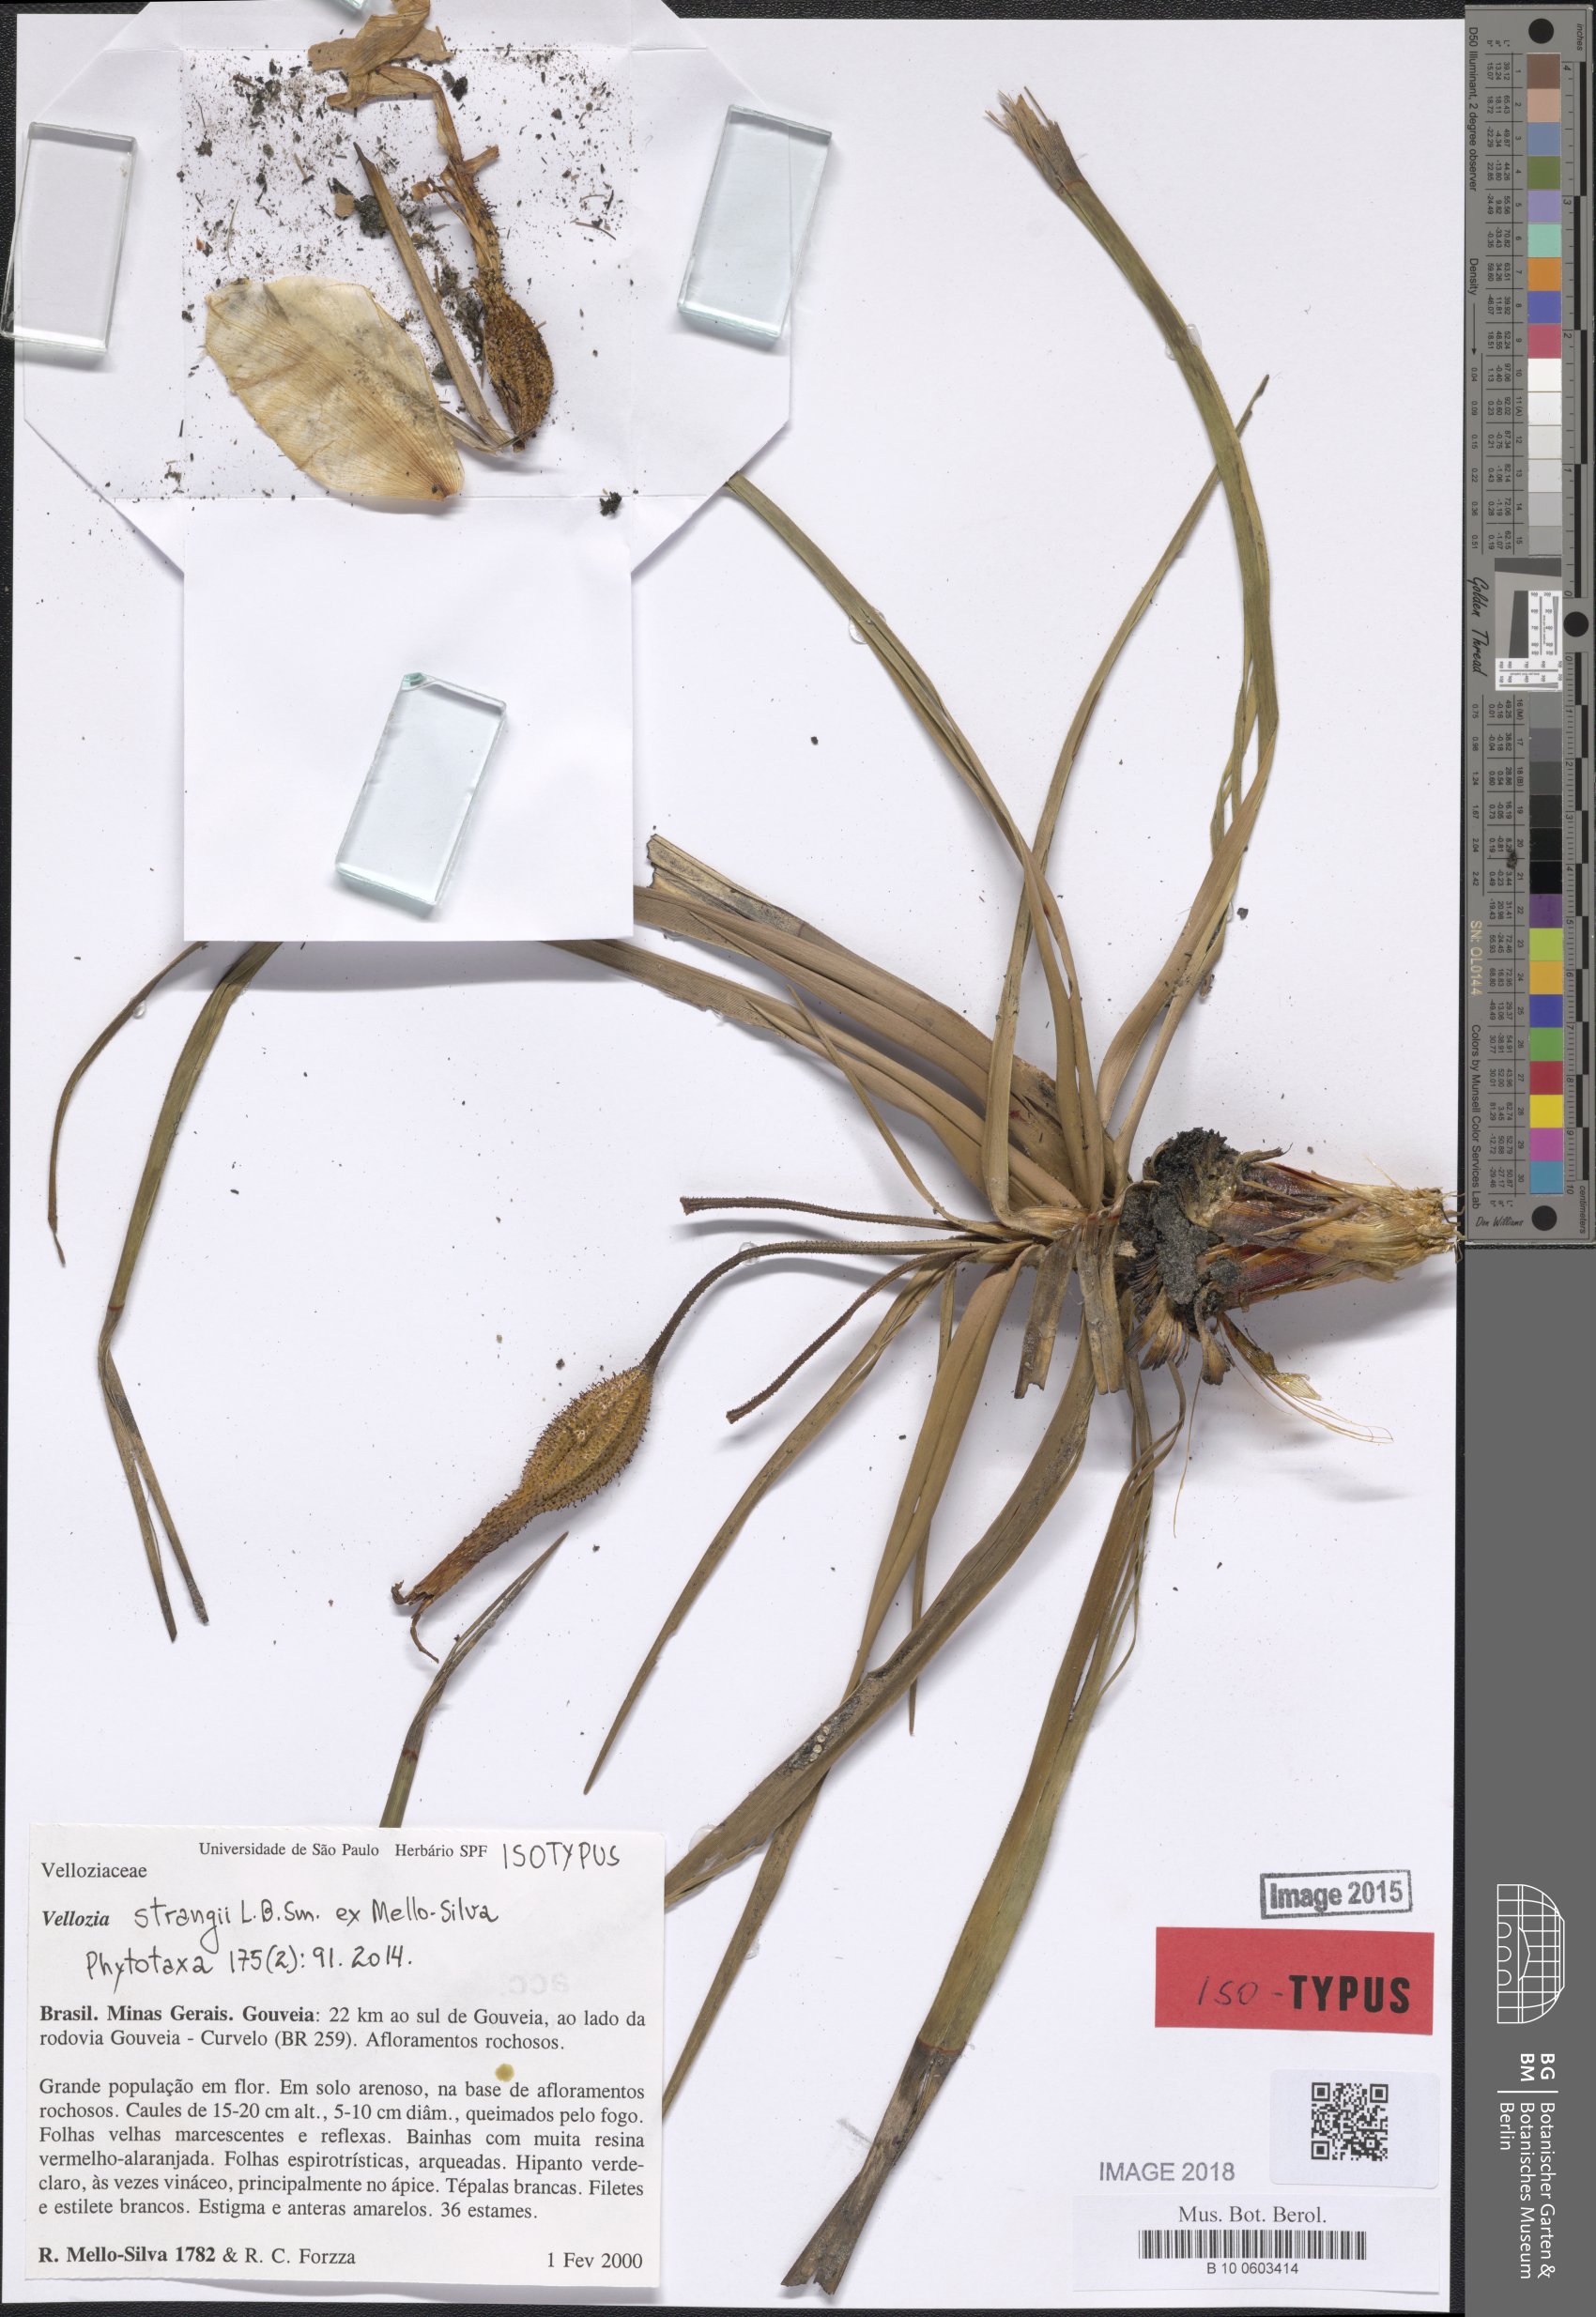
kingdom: Plantae
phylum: Tracheophyta
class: Liliopsida
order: Pandanales
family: Velloziaceae
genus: Vellozia
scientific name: Vellozia strangii
